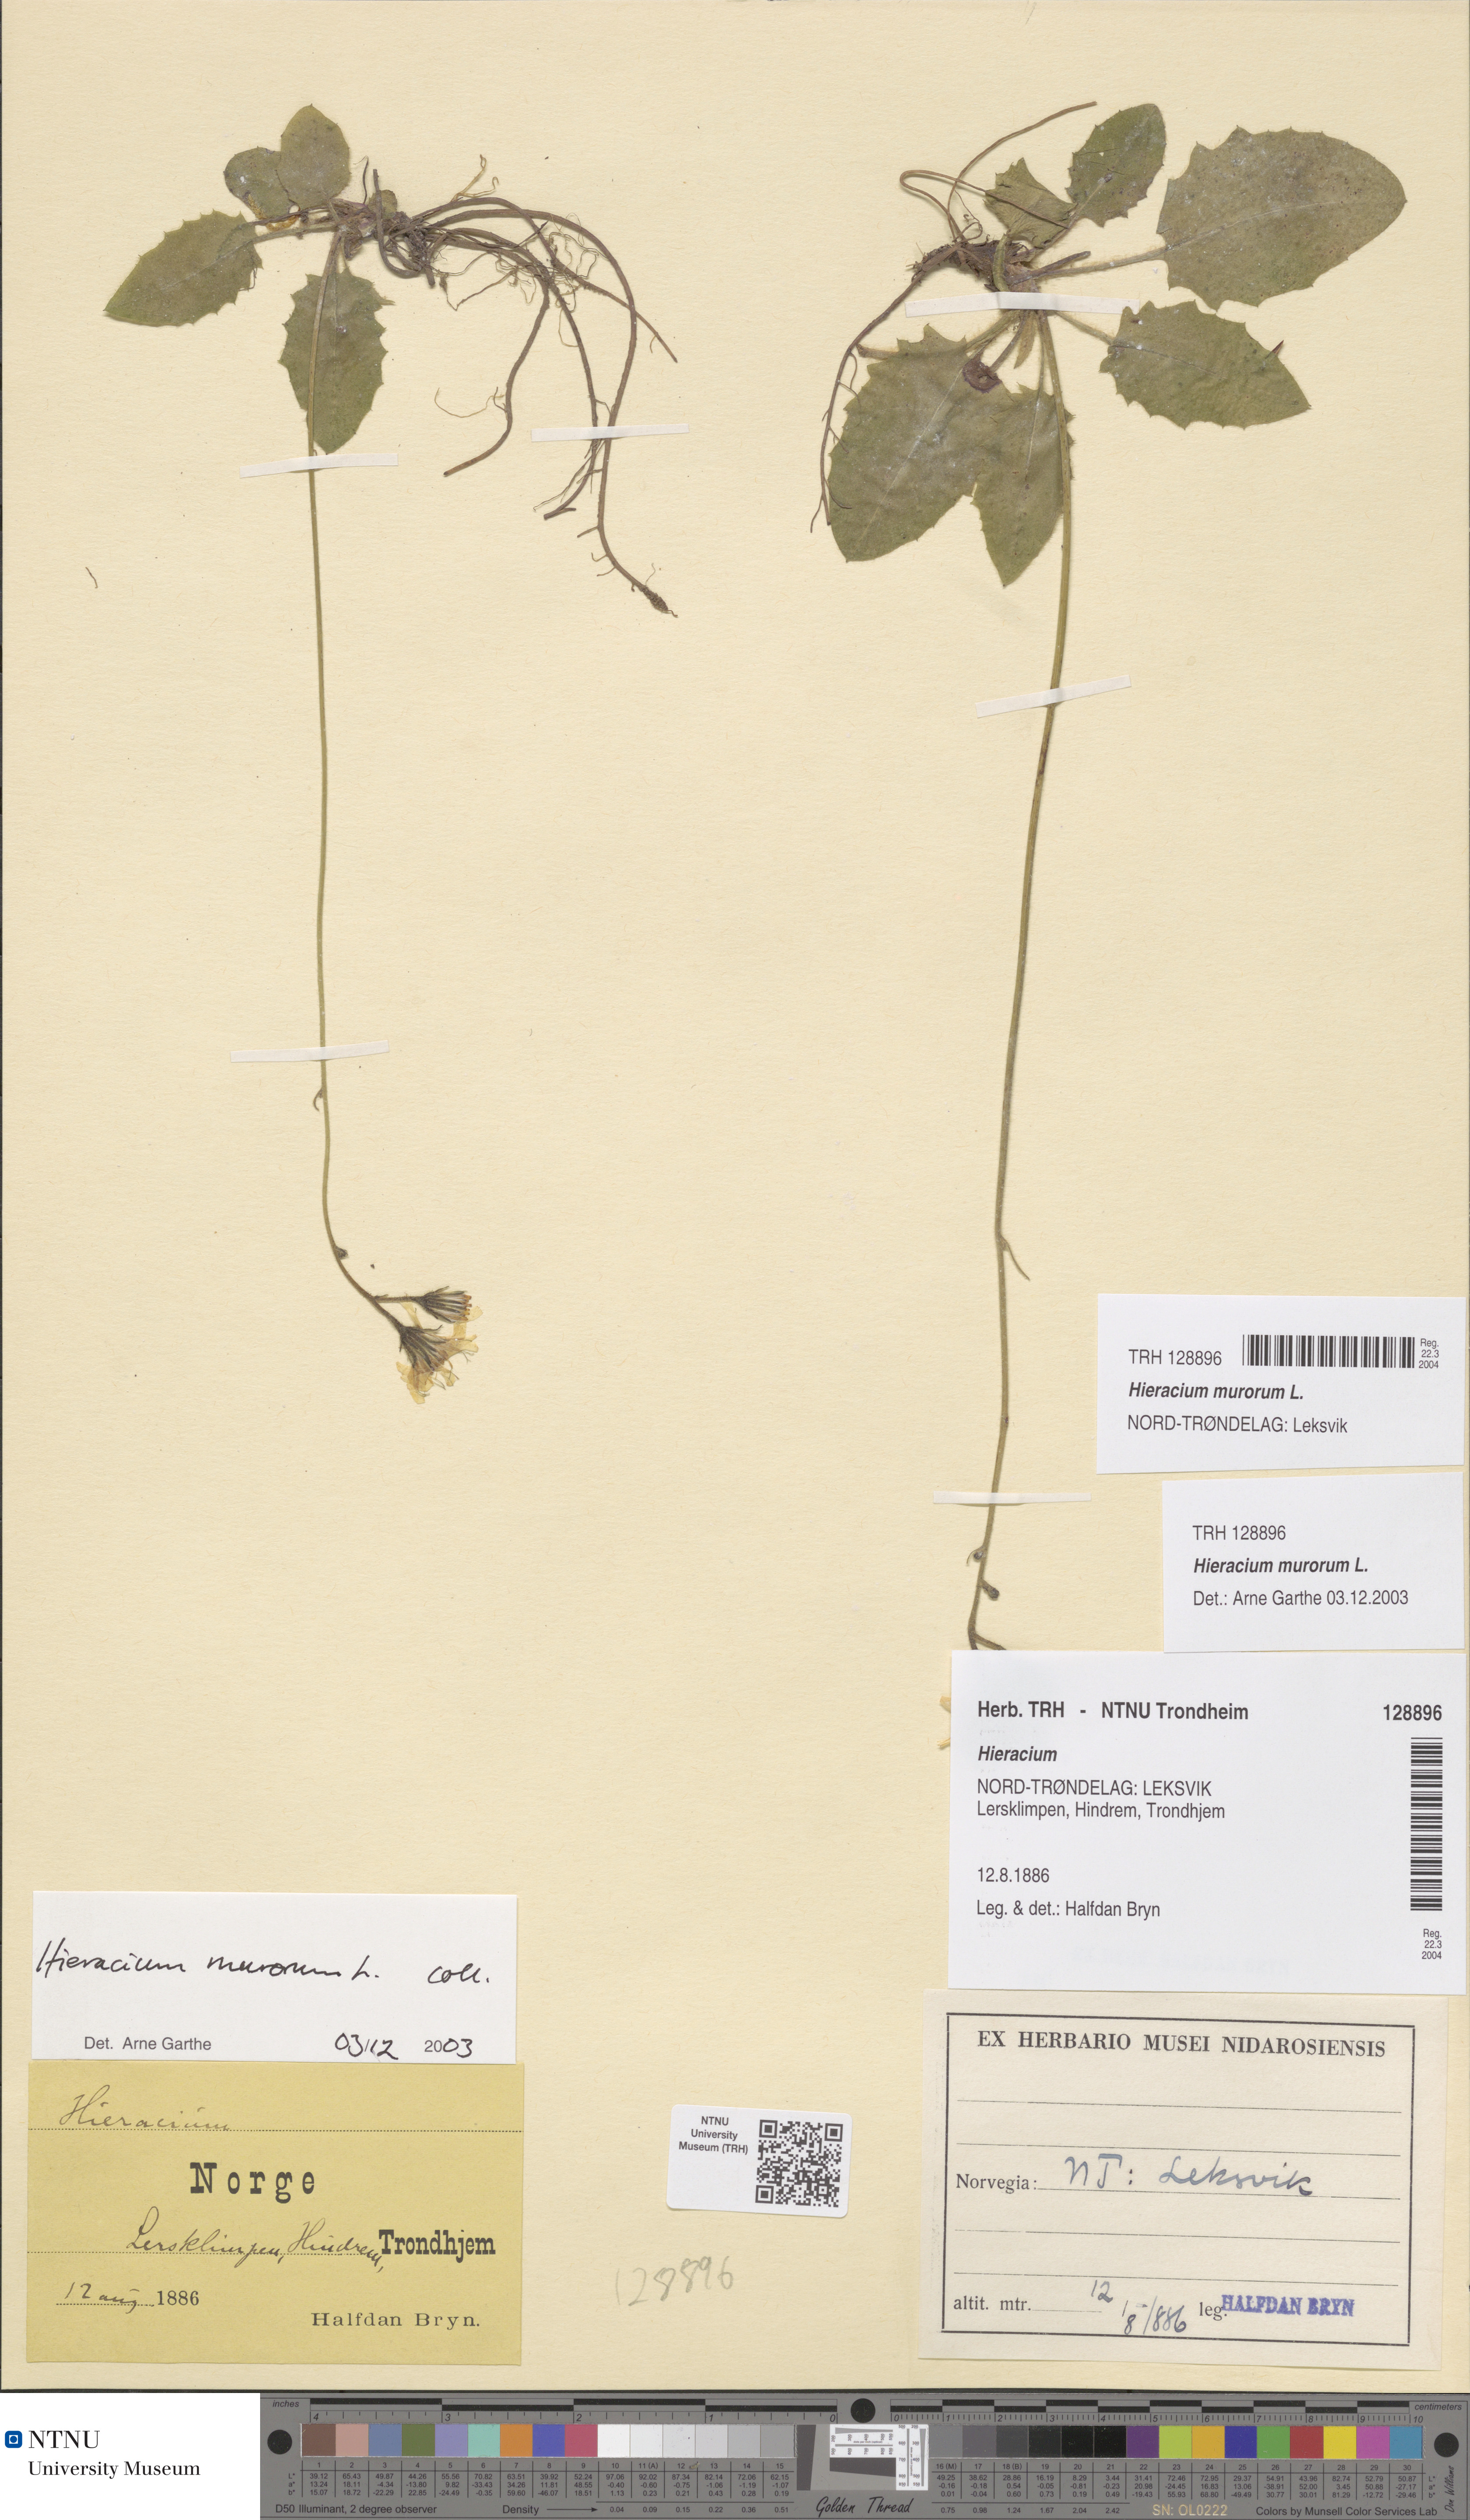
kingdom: Plantae
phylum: Tracheophyta
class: Magnoliopsida
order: Asterales
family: Asteraceae
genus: Hieracium
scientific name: Hieracium murorum
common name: Wall hawkweed
